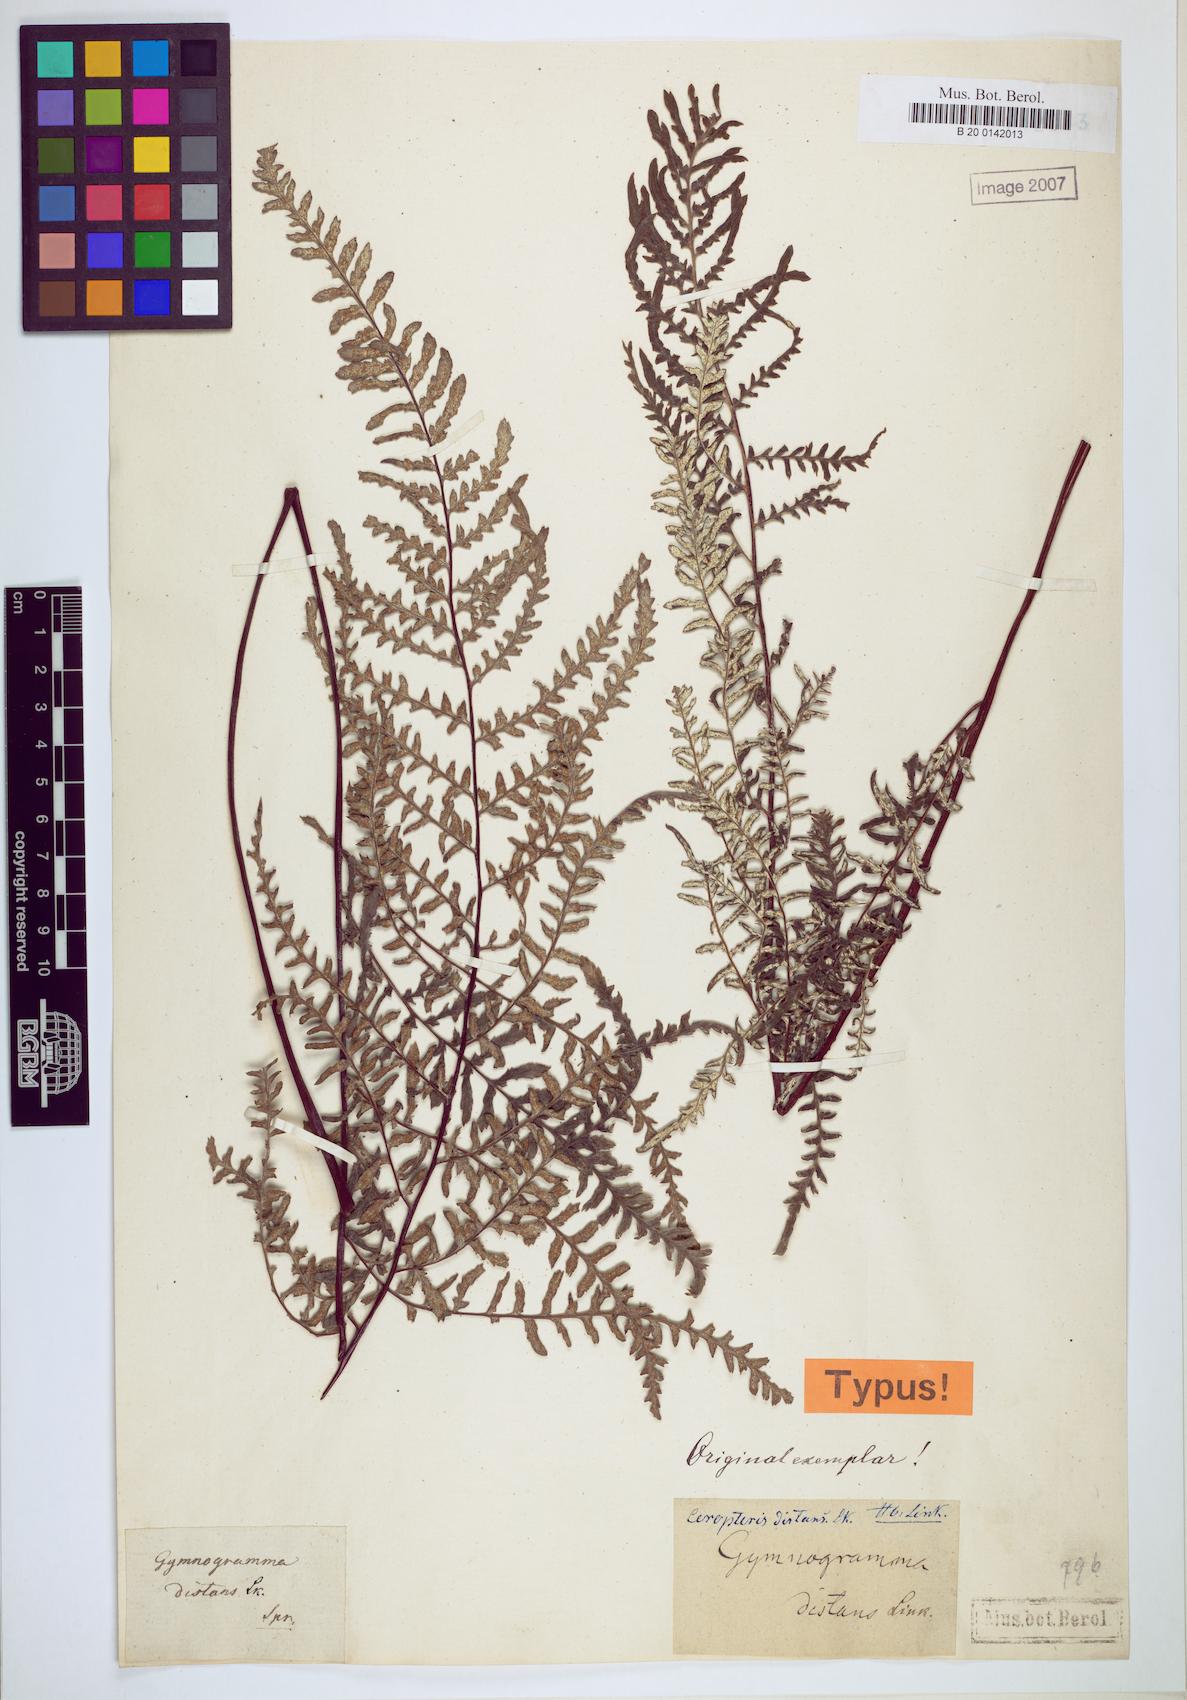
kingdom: Plantae
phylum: Tracheophyta
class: Polypodiopsida
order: Polypodiales
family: Pteridaceae
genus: Pityrogramma
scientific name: Pityrogramma distans
